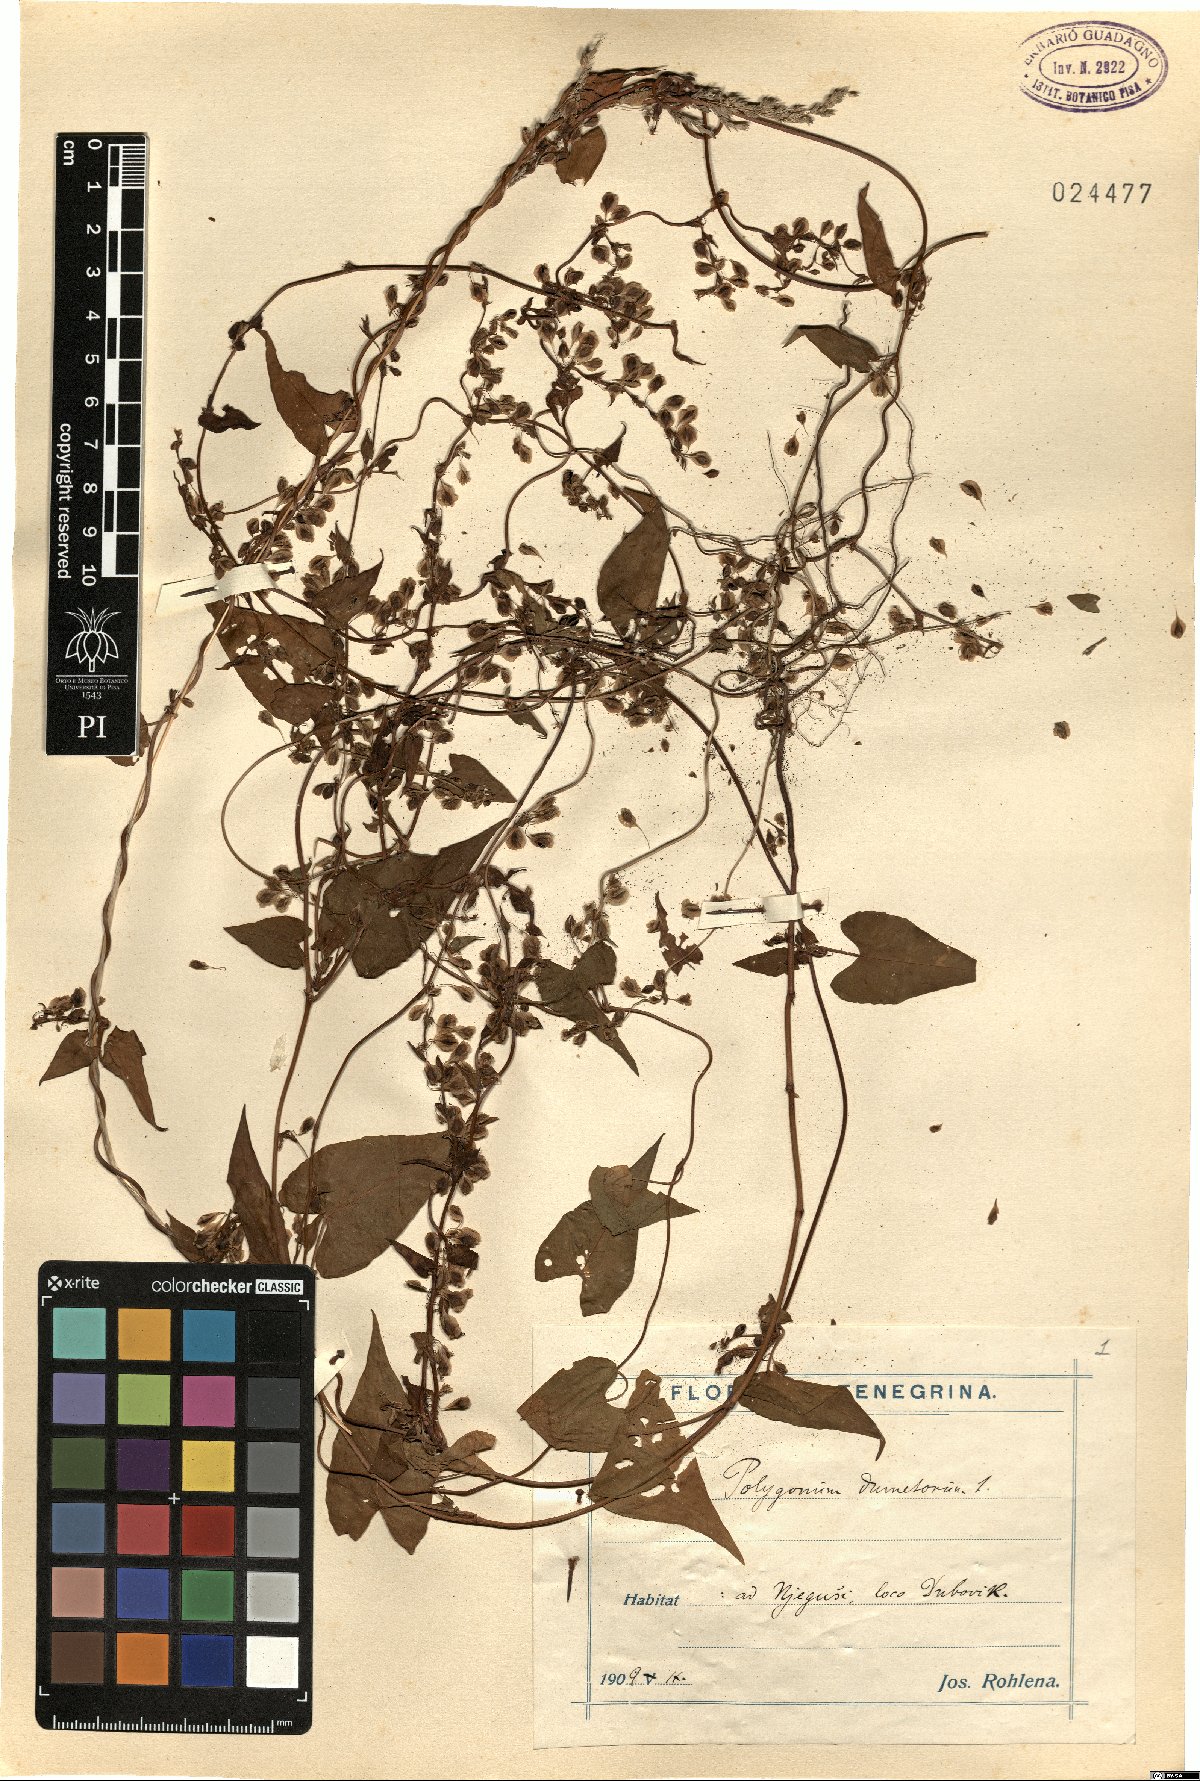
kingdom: Plantae
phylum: Tracheophyta
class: Magnoliopsida
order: Caryophyllales
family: Polygonaceae
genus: Fallopia
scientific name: Fallopia dumetorum
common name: Copse-bindweed
